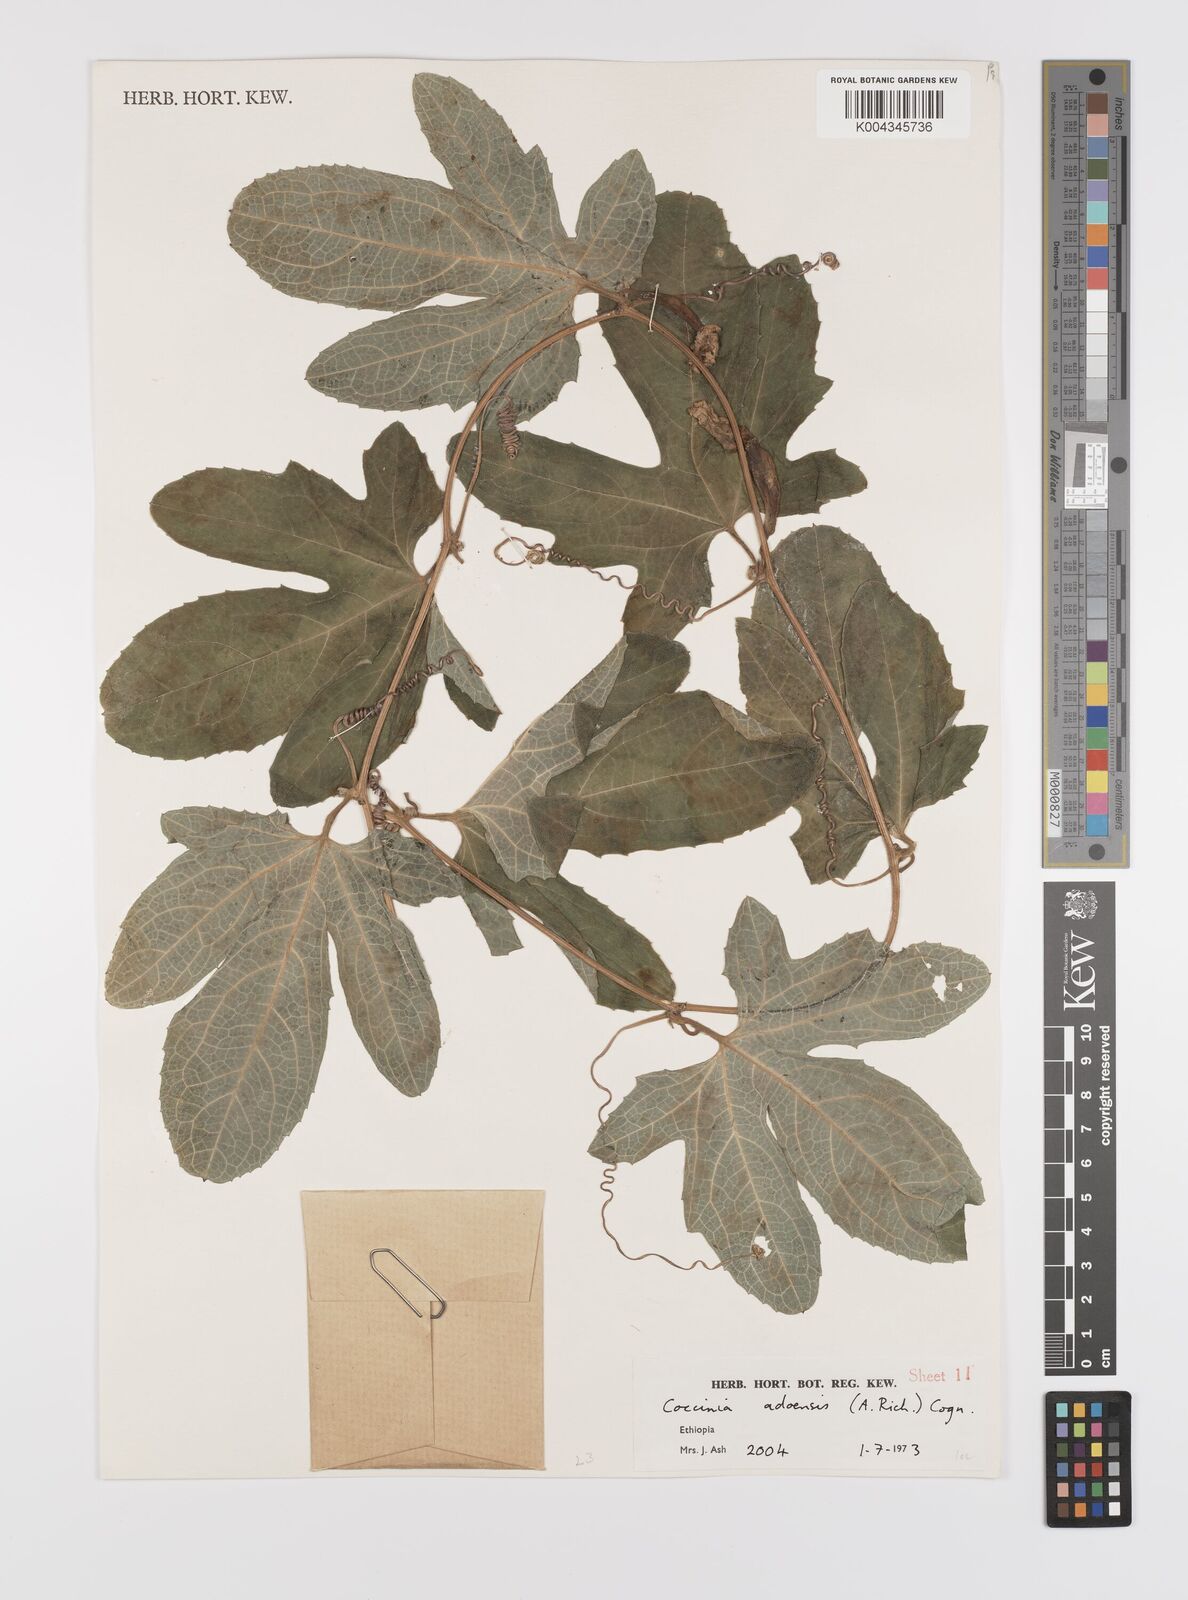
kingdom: Plantae
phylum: Tracheophyta
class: Magnoliopsida
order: Cucurbitales
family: Cucurbitaceae
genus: Coccinia
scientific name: Coccinia adoensis
